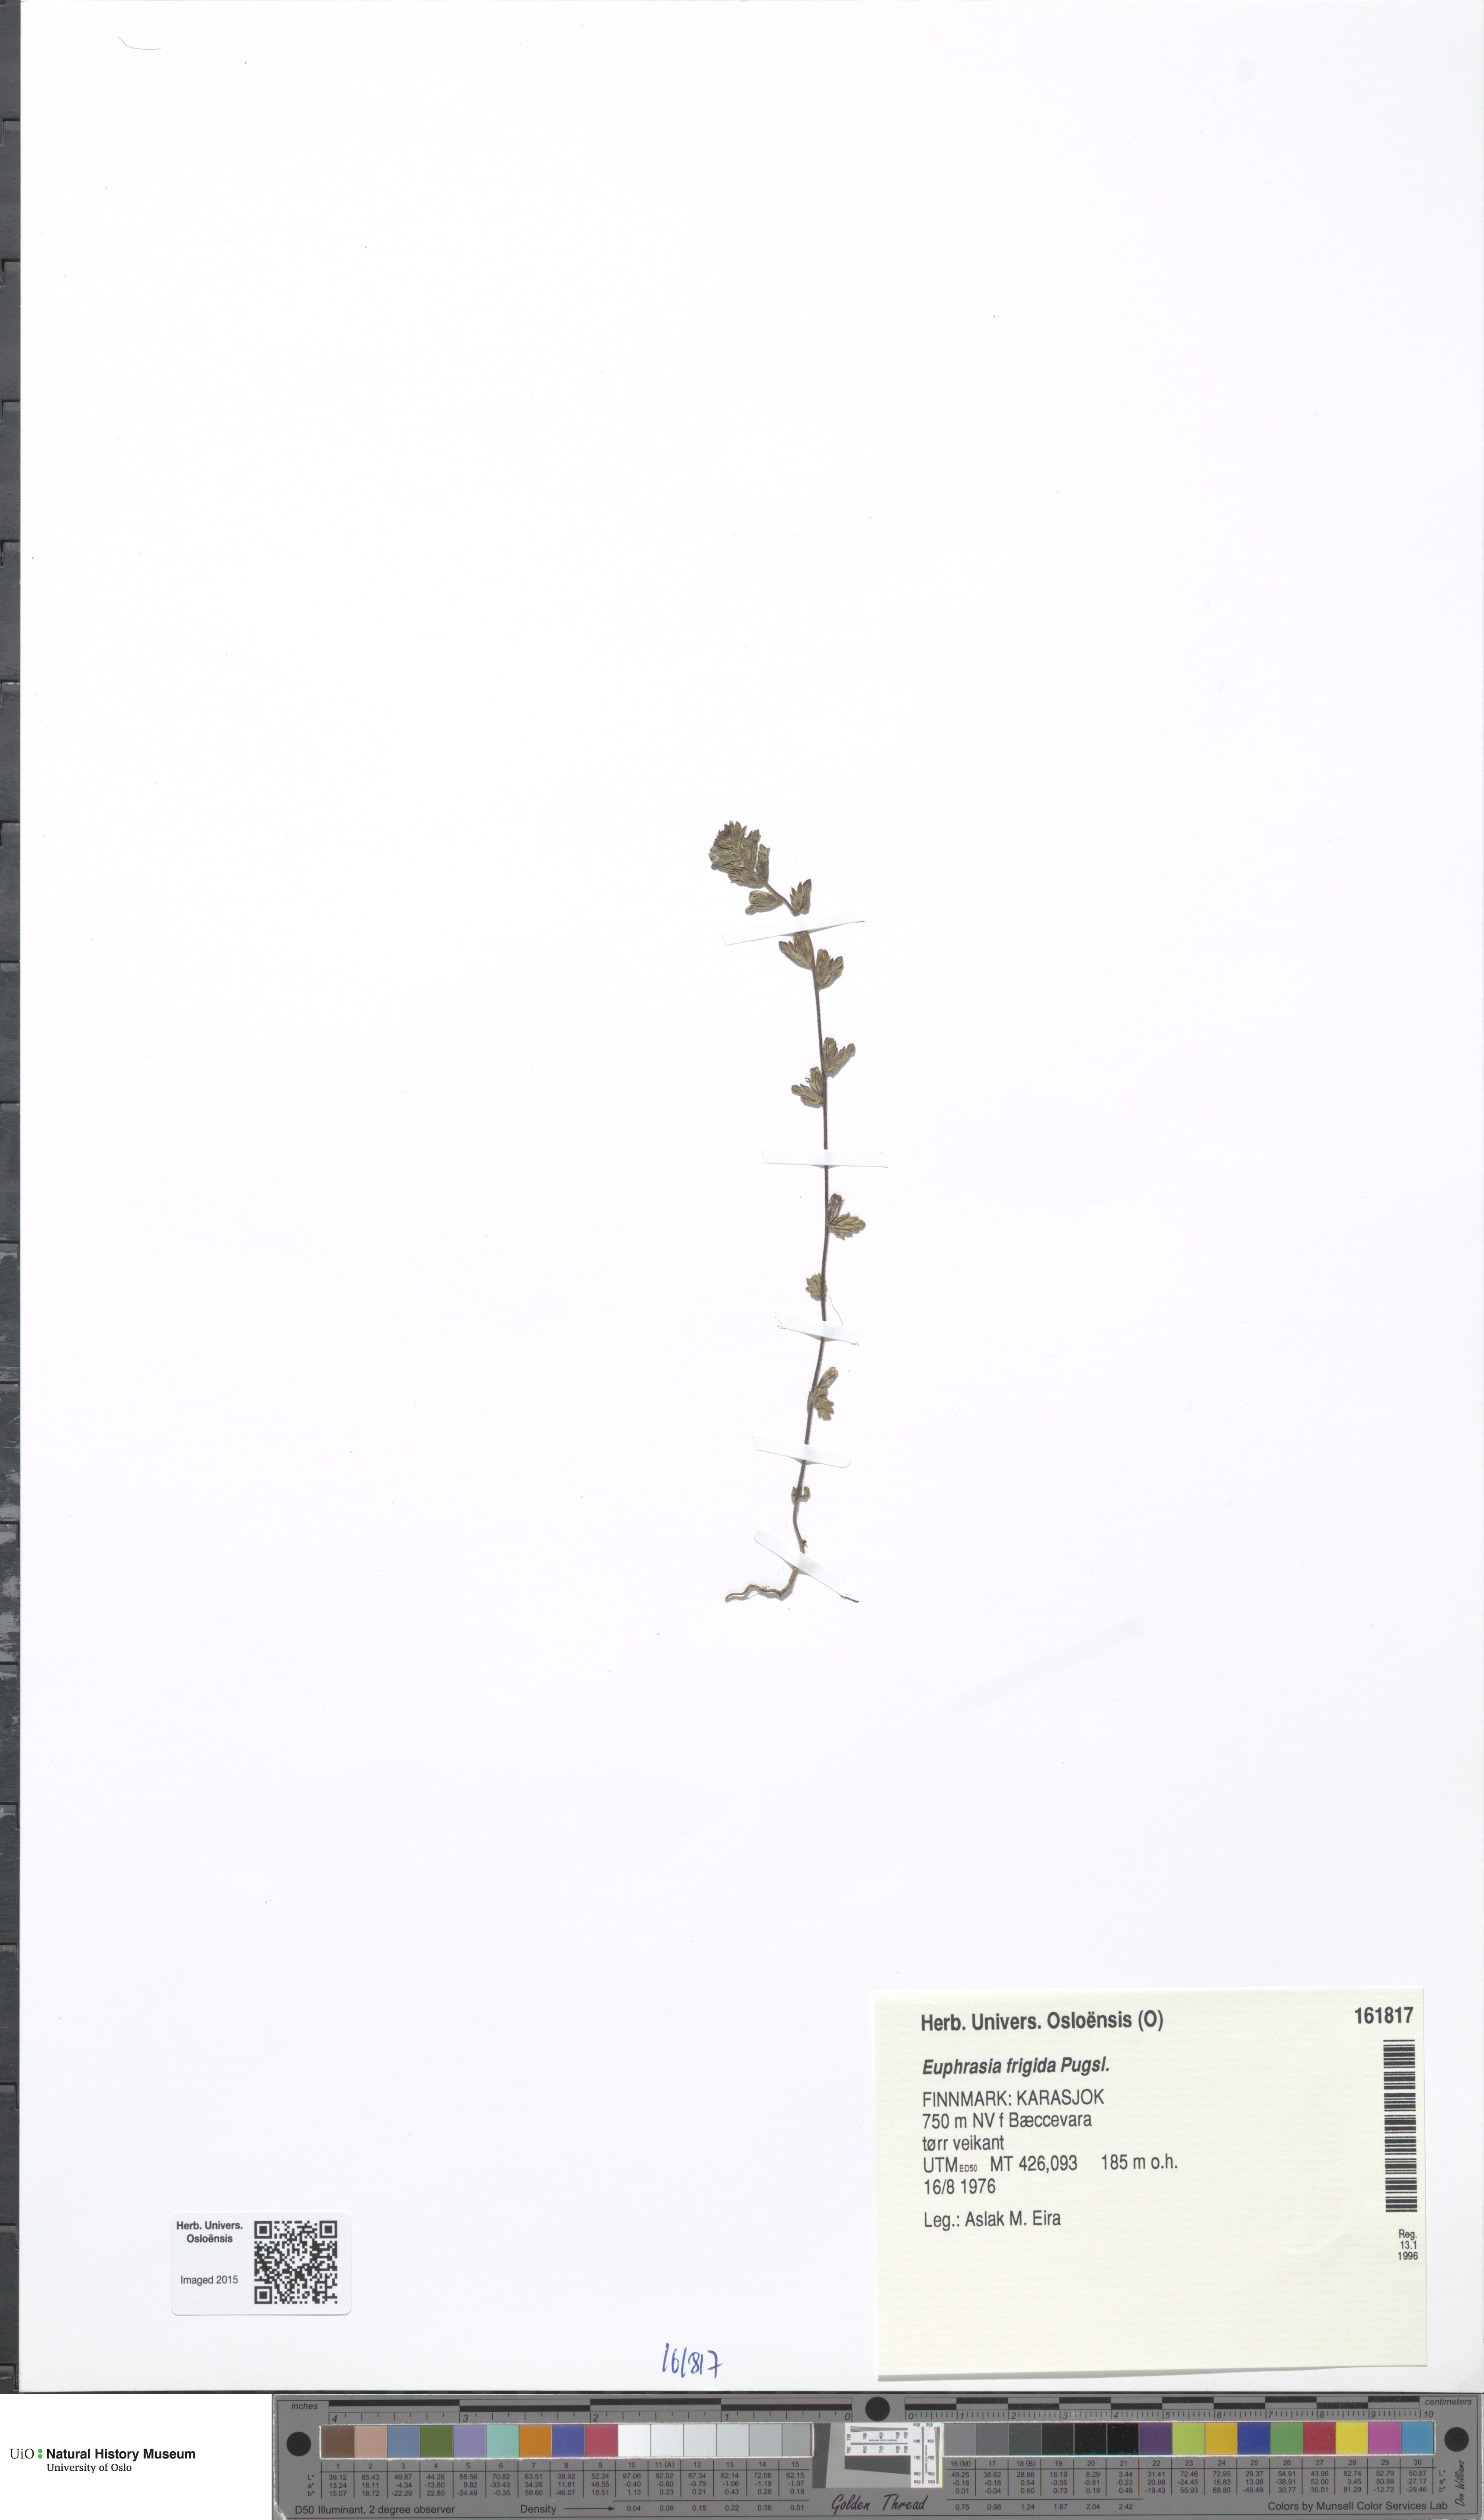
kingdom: Plantae
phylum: Tracheophyta
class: Magnoliopsida
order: Lamiales
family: Orobanchaceae
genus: Euphrasia
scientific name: Euphrasia frigida
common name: An eyebright
